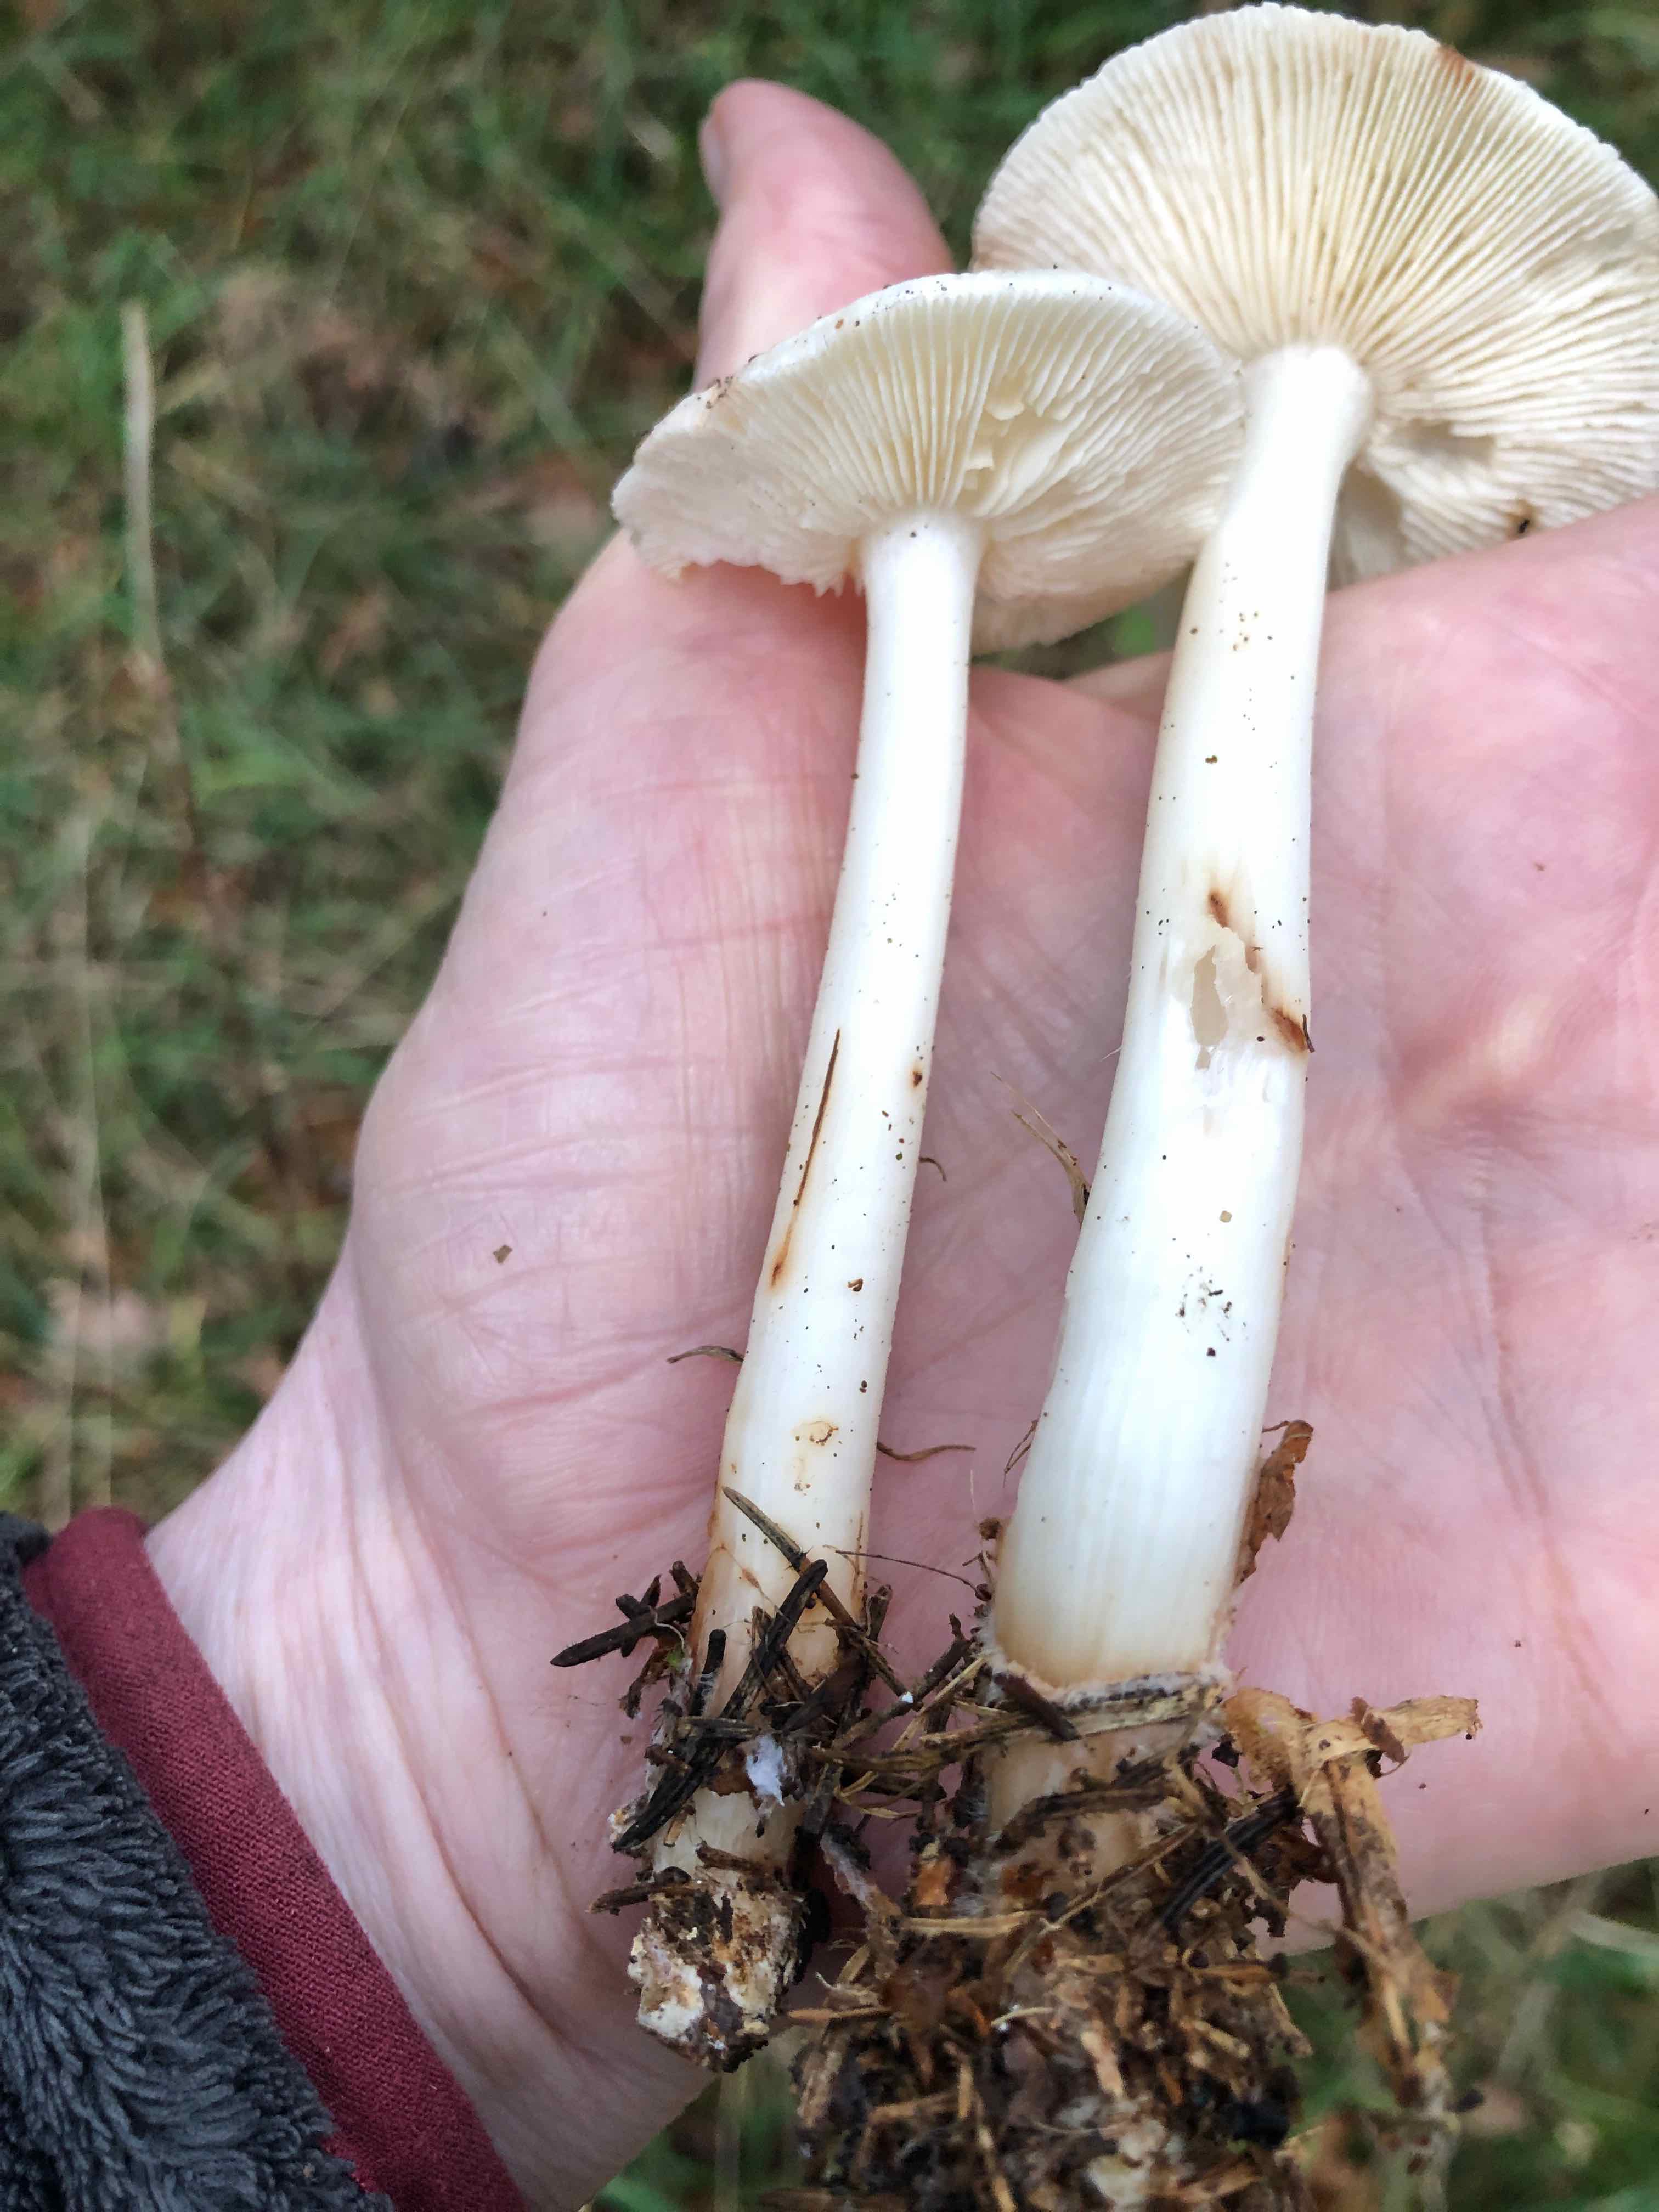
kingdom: Fungi
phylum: Basidiomycota
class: Agaricomycetes
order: Agaricales
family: Omphalotaceae
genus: Rhodocollybia
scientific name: Rhodocollybia maculata
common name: plettet fladhat
